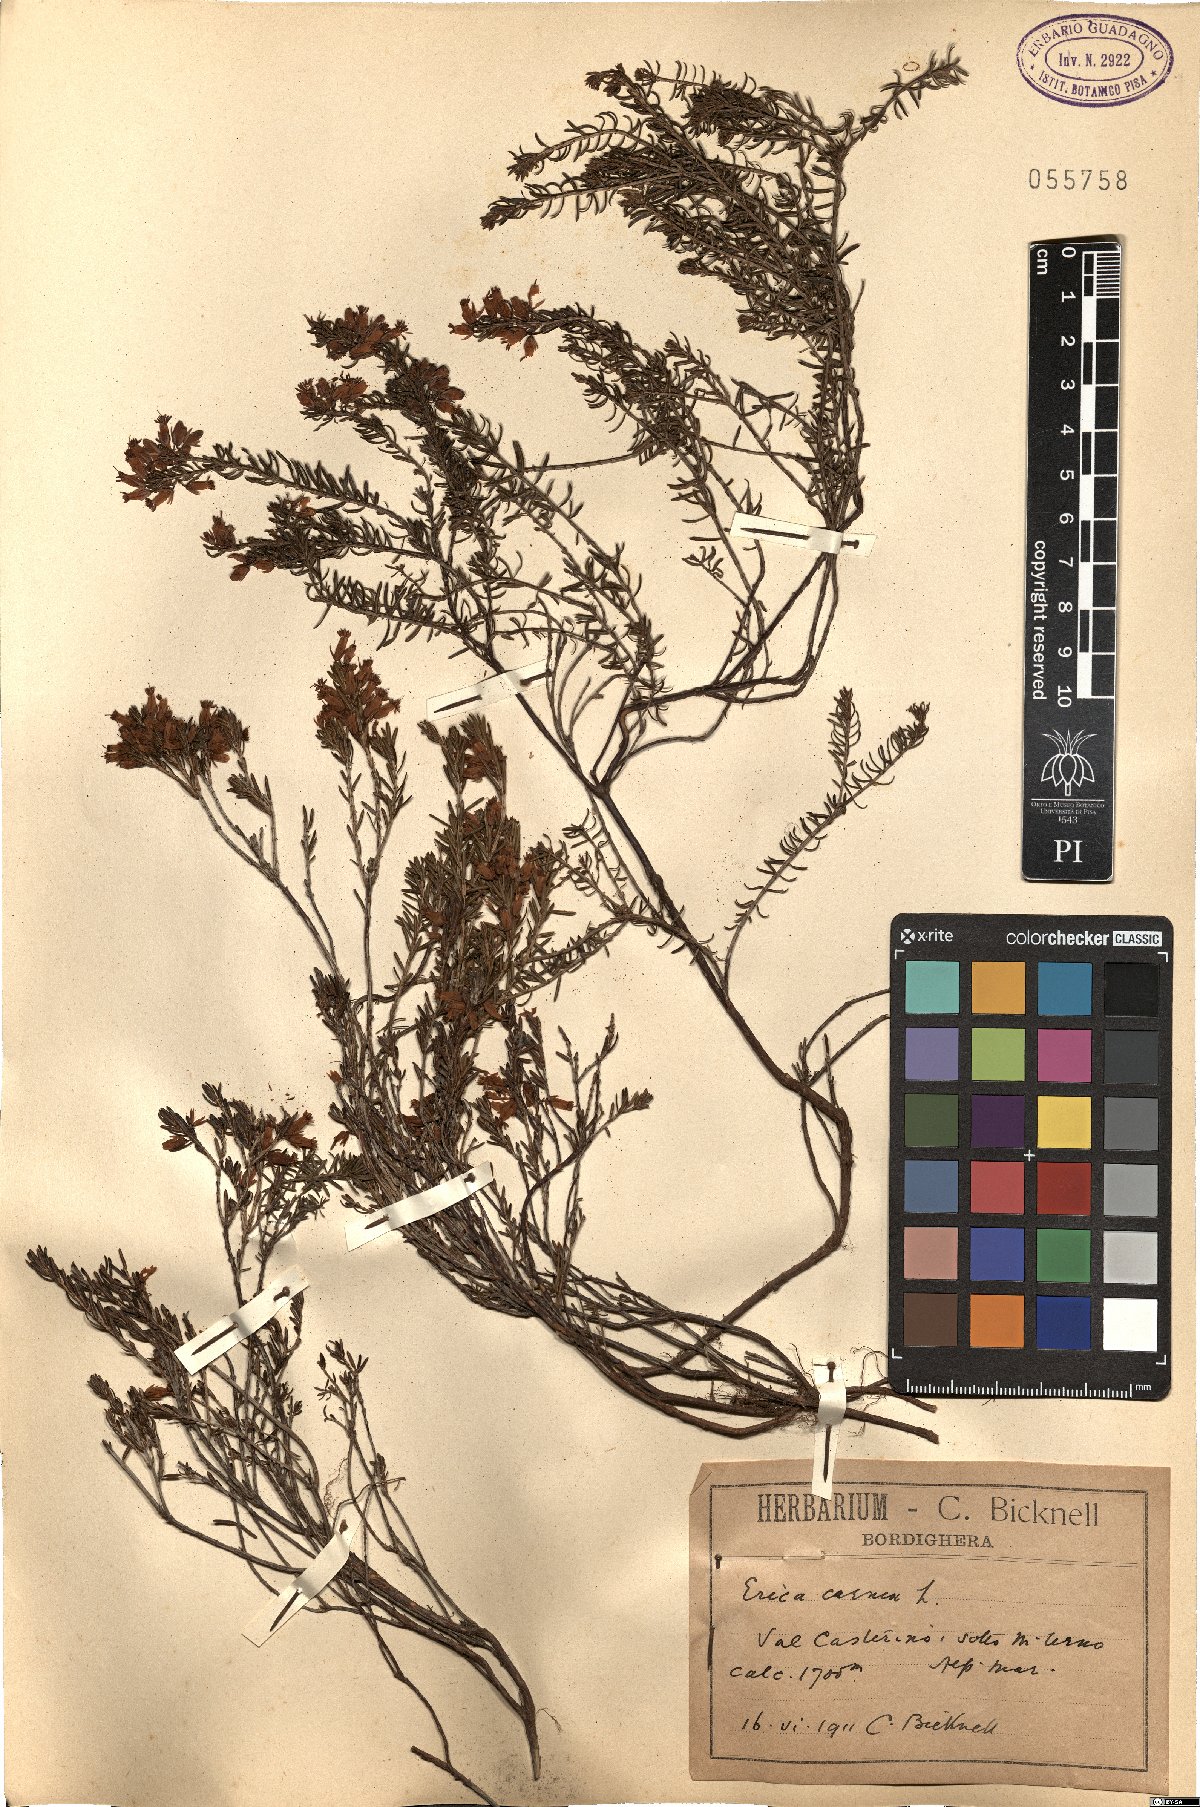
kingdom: Plantae
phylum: Tracheophyta
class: Magnoliopsida
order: Ericales
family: Ericaceae
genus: Erica
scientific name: Erica carnea
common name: Winter heath
